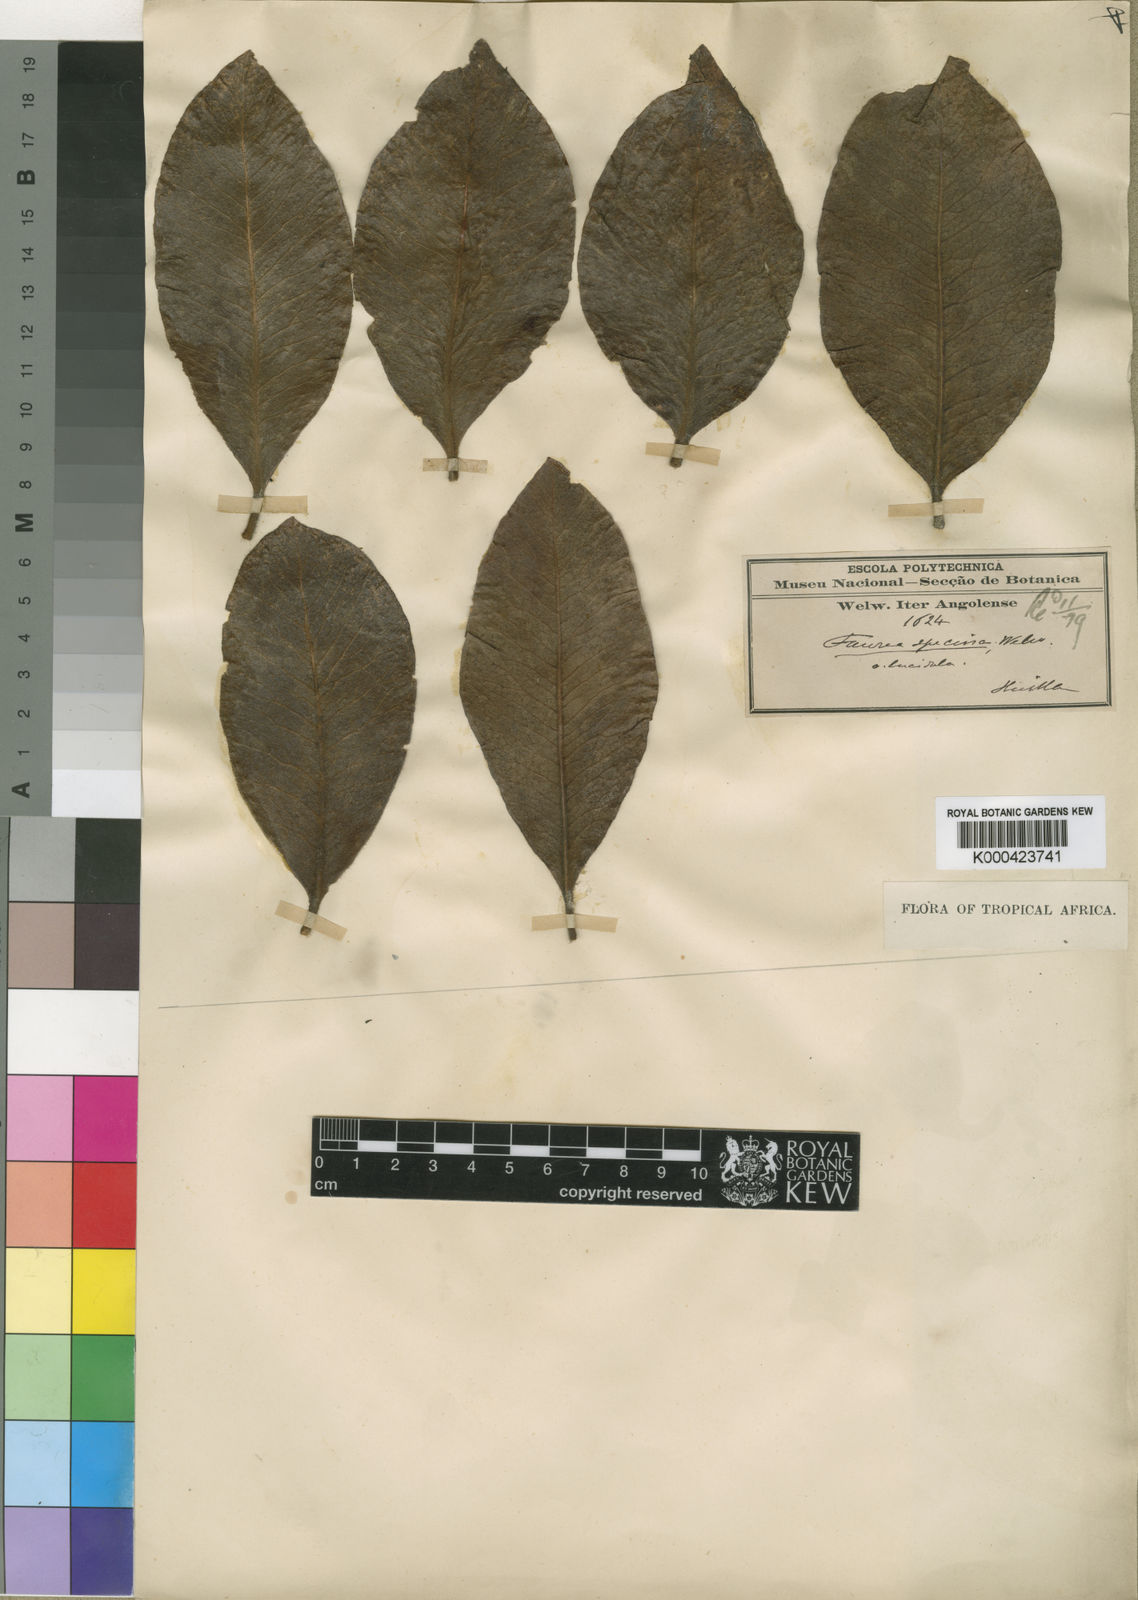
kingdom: Plantae
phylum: Tracheophyta
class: Magnoliopsida
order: Proteales
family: Proteaceae
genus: Faurea
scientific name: Faurea rochetiana
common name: Broad-leaved beech
